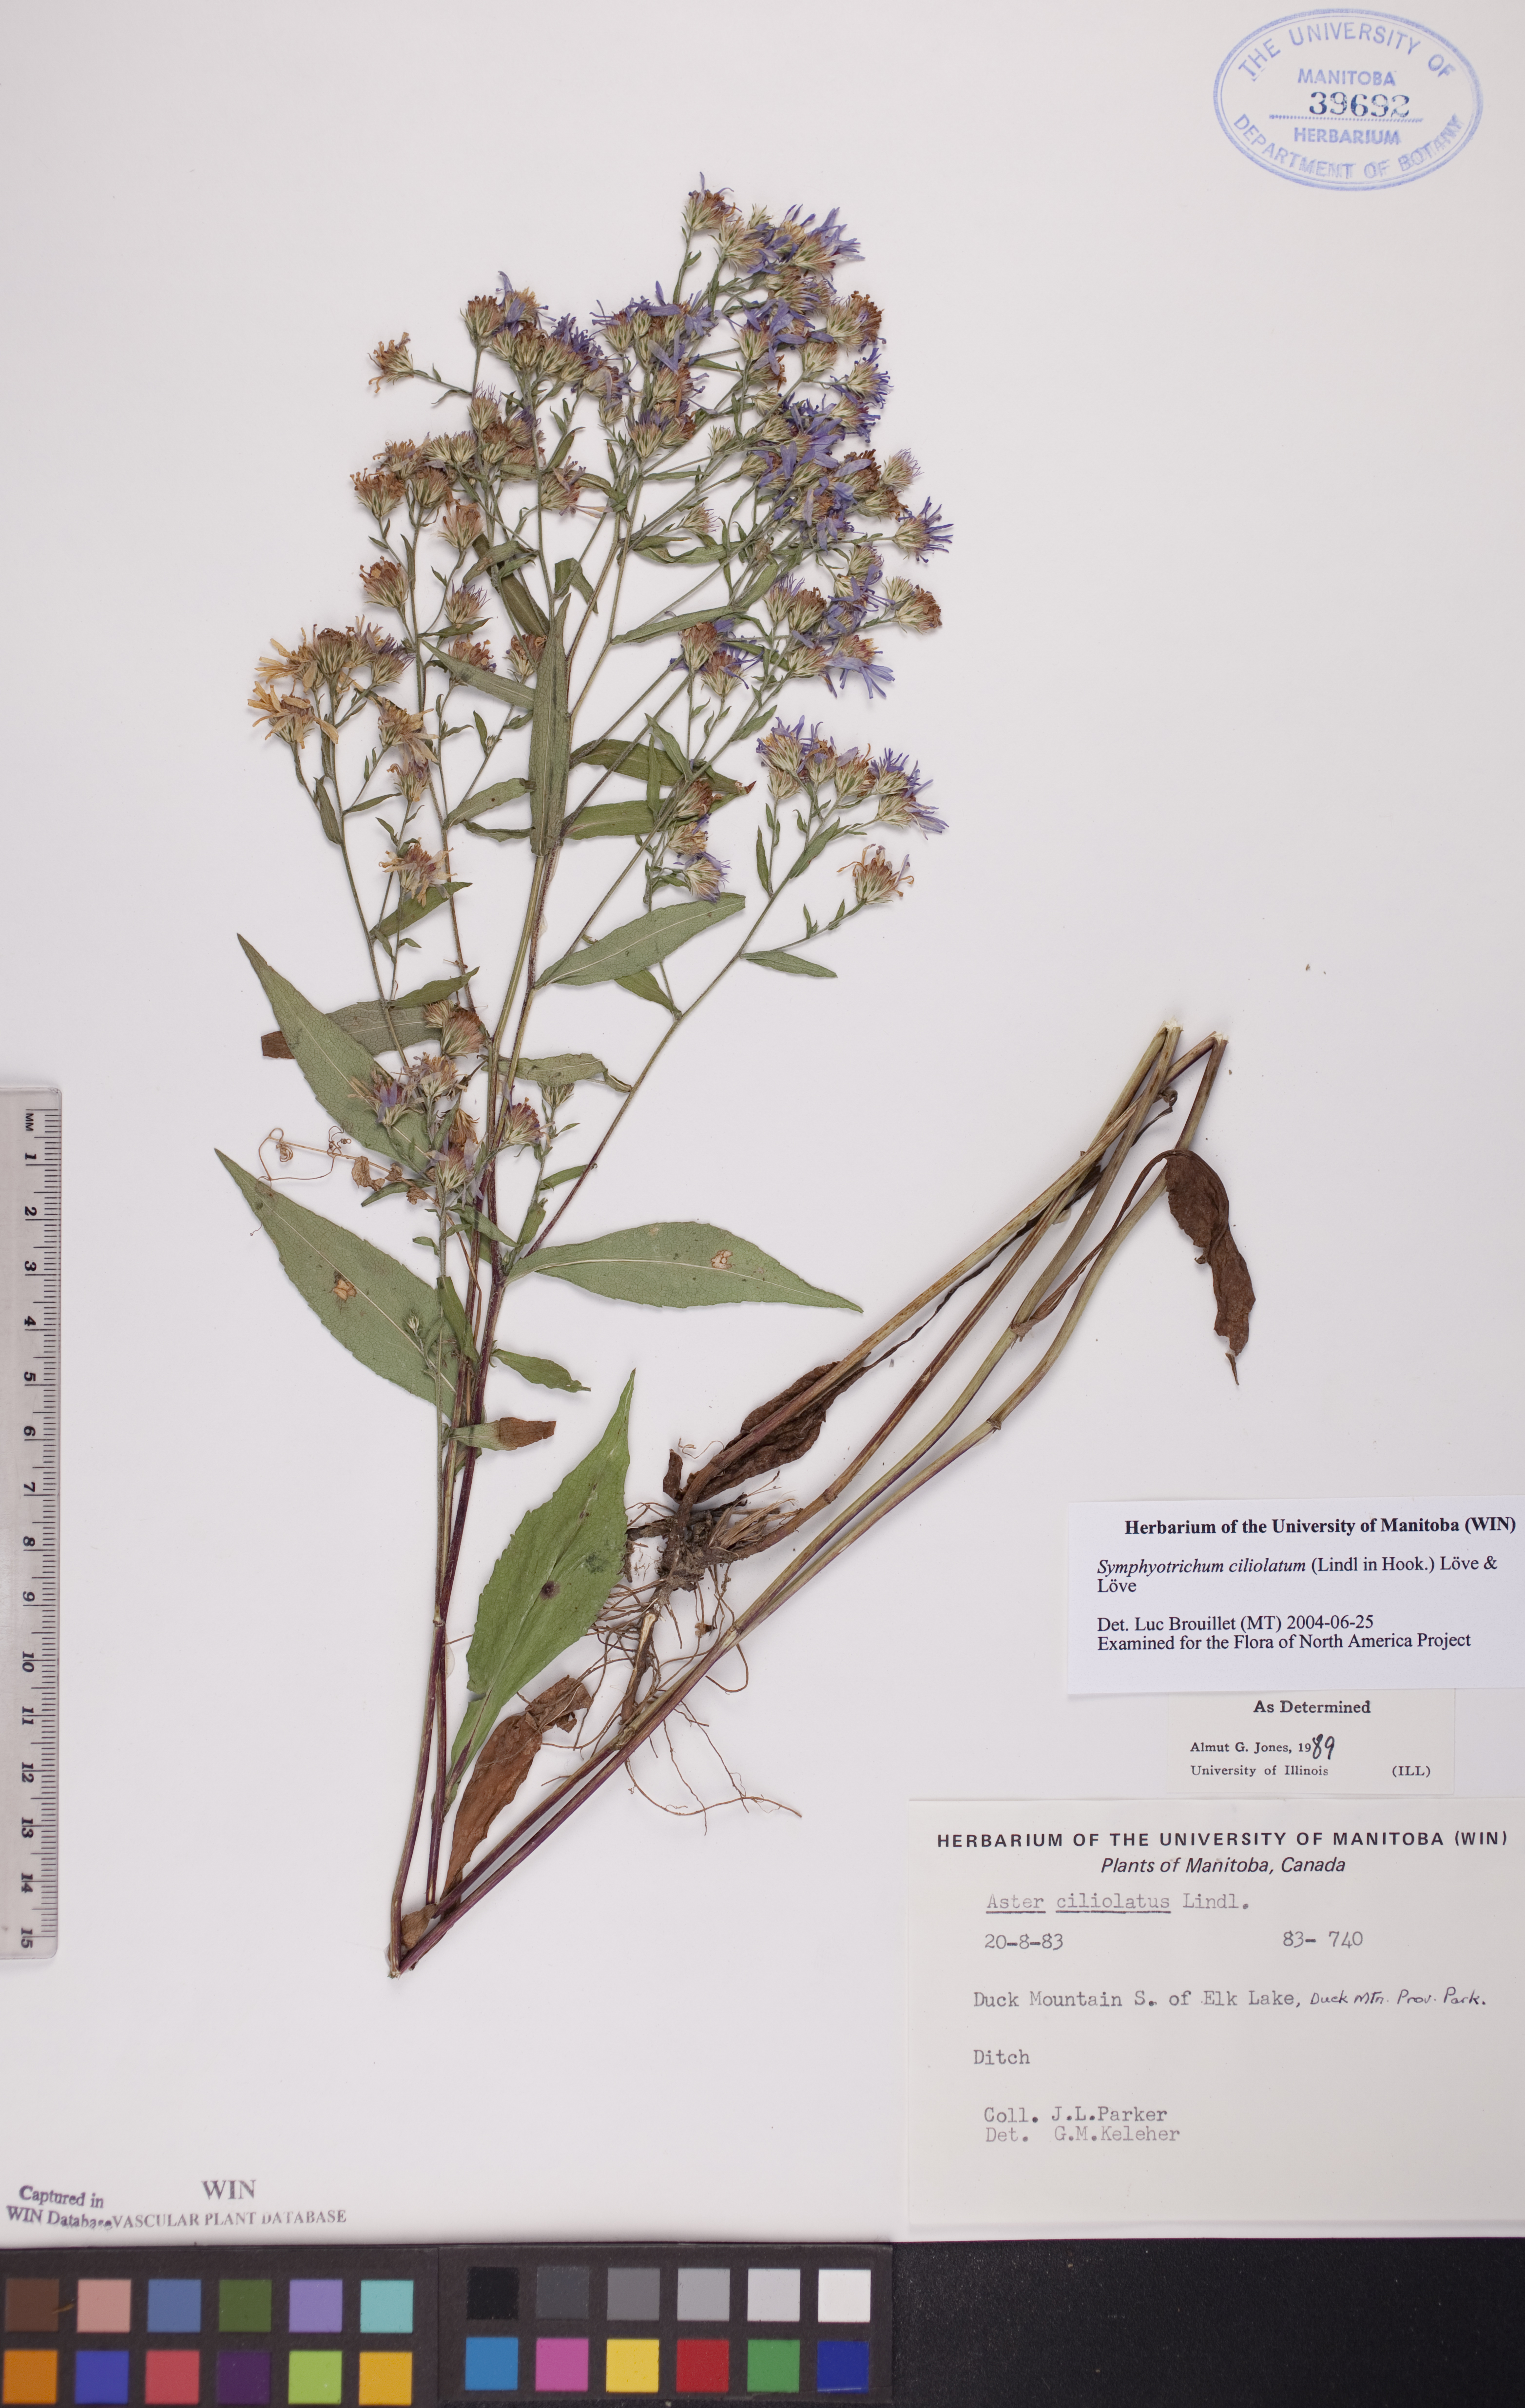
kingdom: Plantae
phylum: Tracheophyta
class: Magnoliopsida
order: Asterales
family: Asteraceae
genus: Symphyotrichum
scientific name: Symphyotrichum ciliolatum
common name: Fringed blue aster
